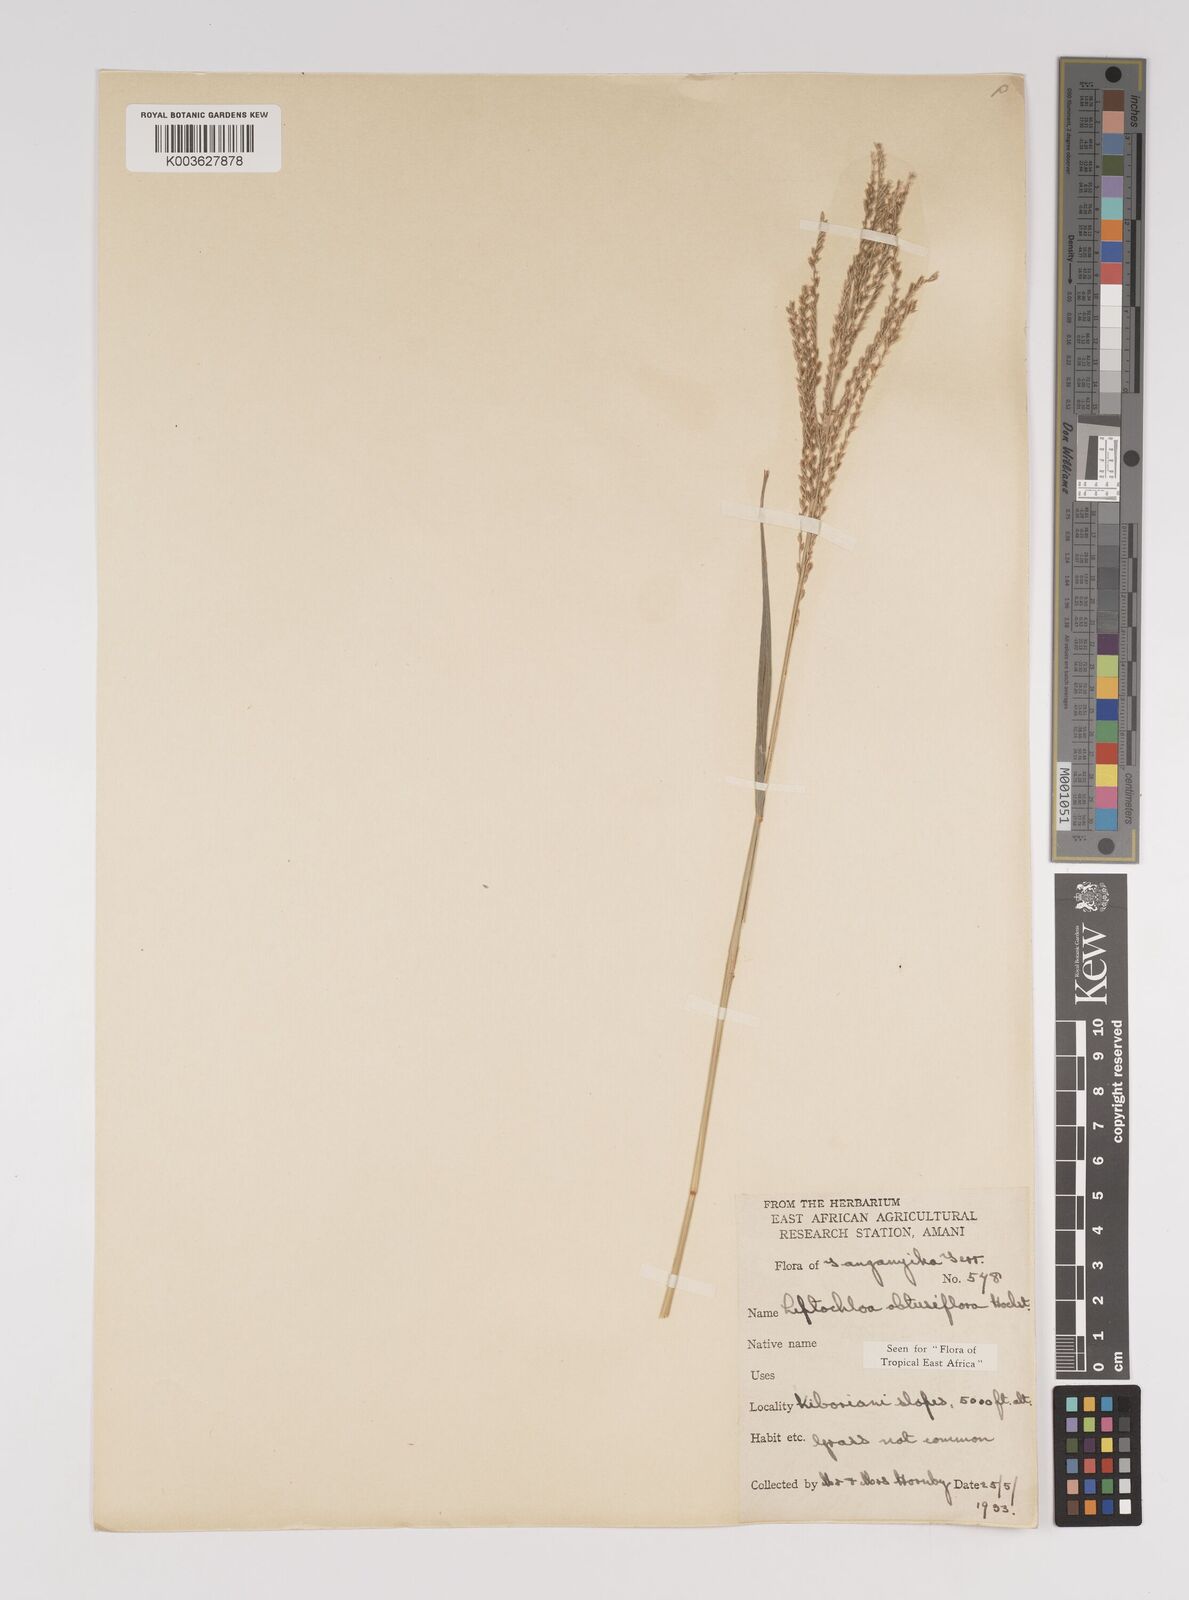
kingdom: Plantae
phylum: Tracheophyta
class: Liliopsida
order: Poales
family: Poaceae
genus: Disakisperma
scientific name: Disakisperma obtusiflorum
